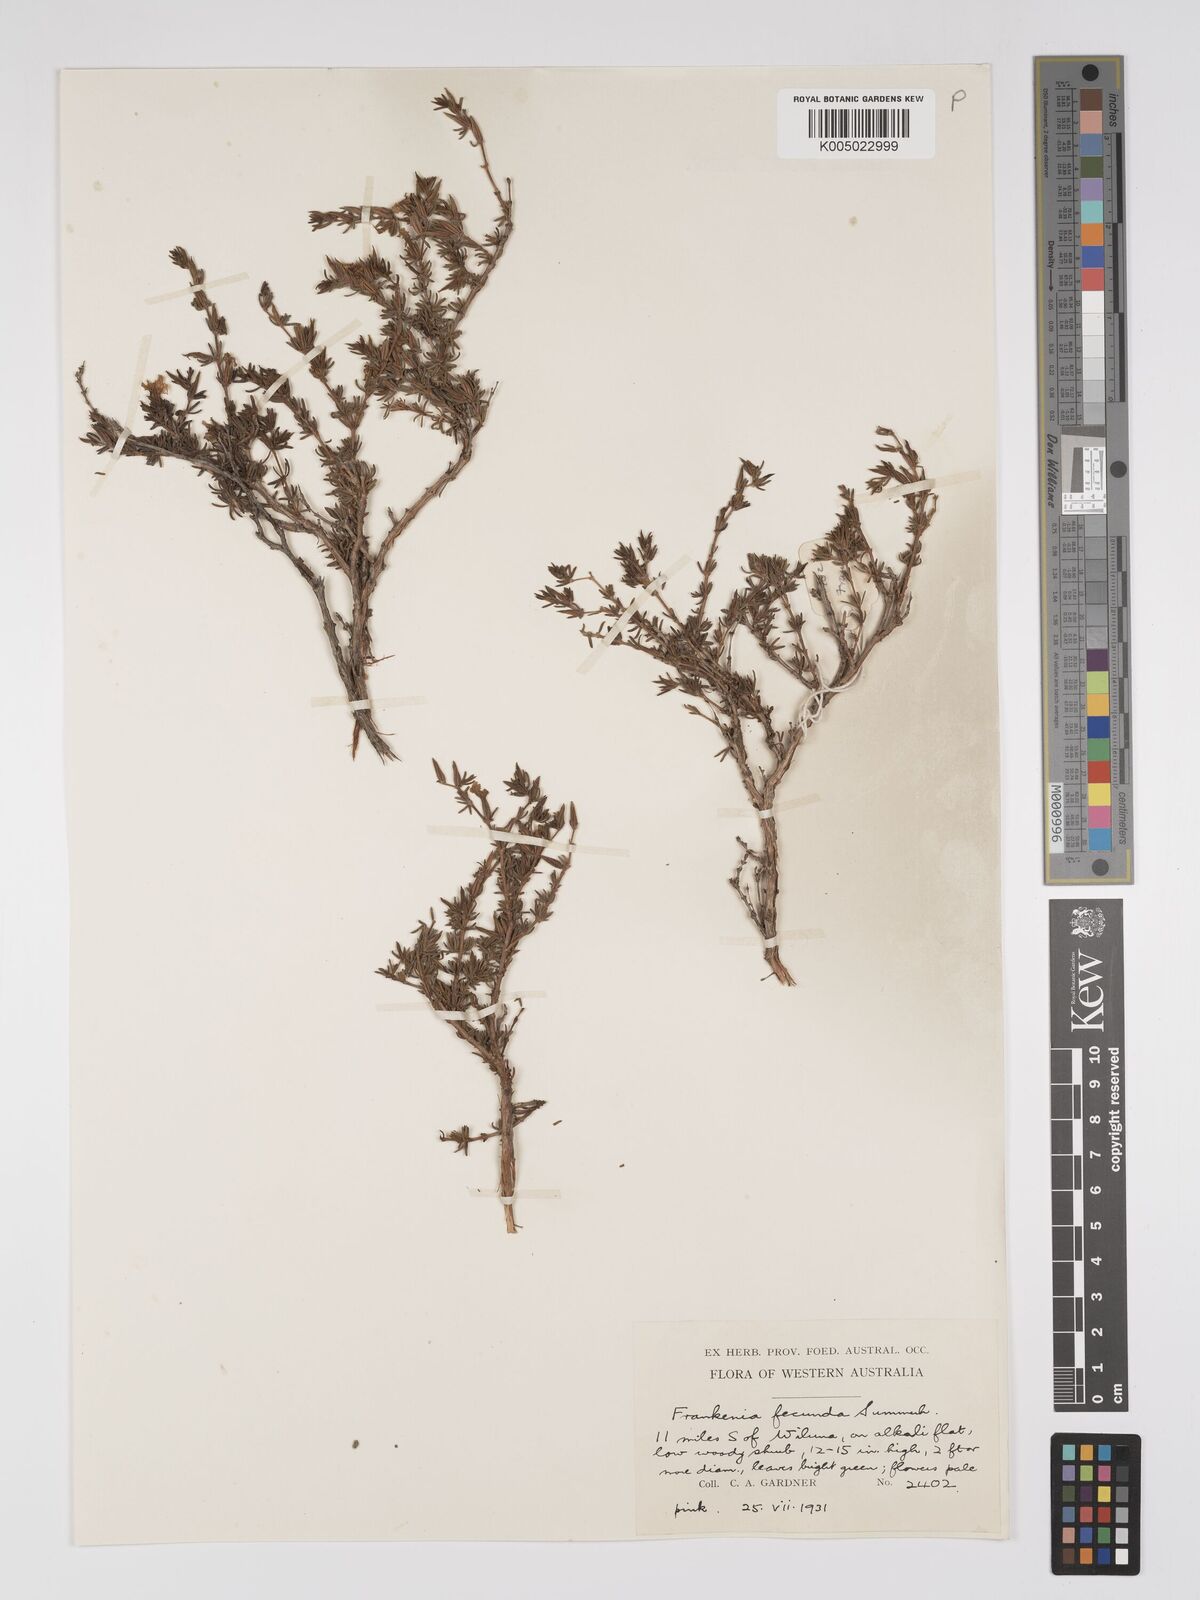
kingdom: Plantae
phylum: Tracheophyta
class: Magnoliopsida
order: Caryophyllales
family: Frankeniaceae
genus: Frankenia
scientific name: Frankenia fecunda
